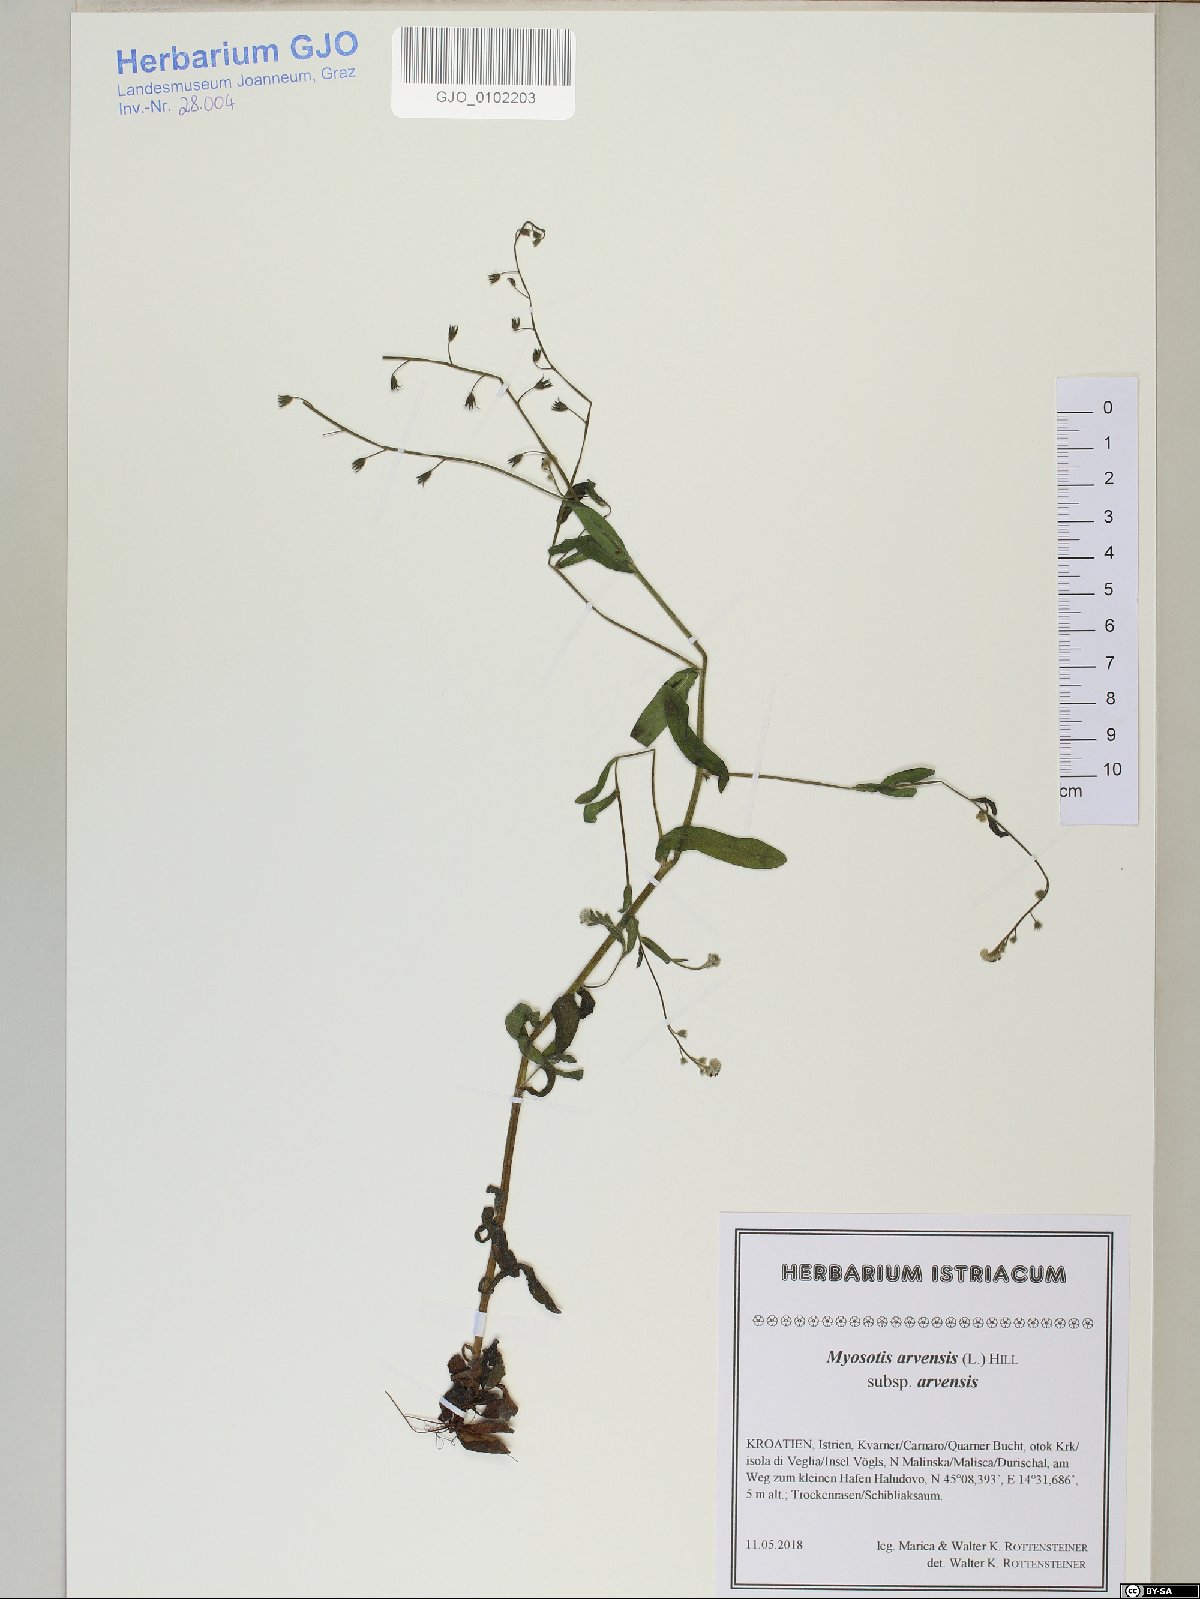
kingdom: Plantae
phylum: Tracheophyta
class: Magnoliopsida
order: Boraginales
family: Boraginaceae
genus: Myosotis
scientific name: Myosotis arvensis
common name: Field forget-me-not
